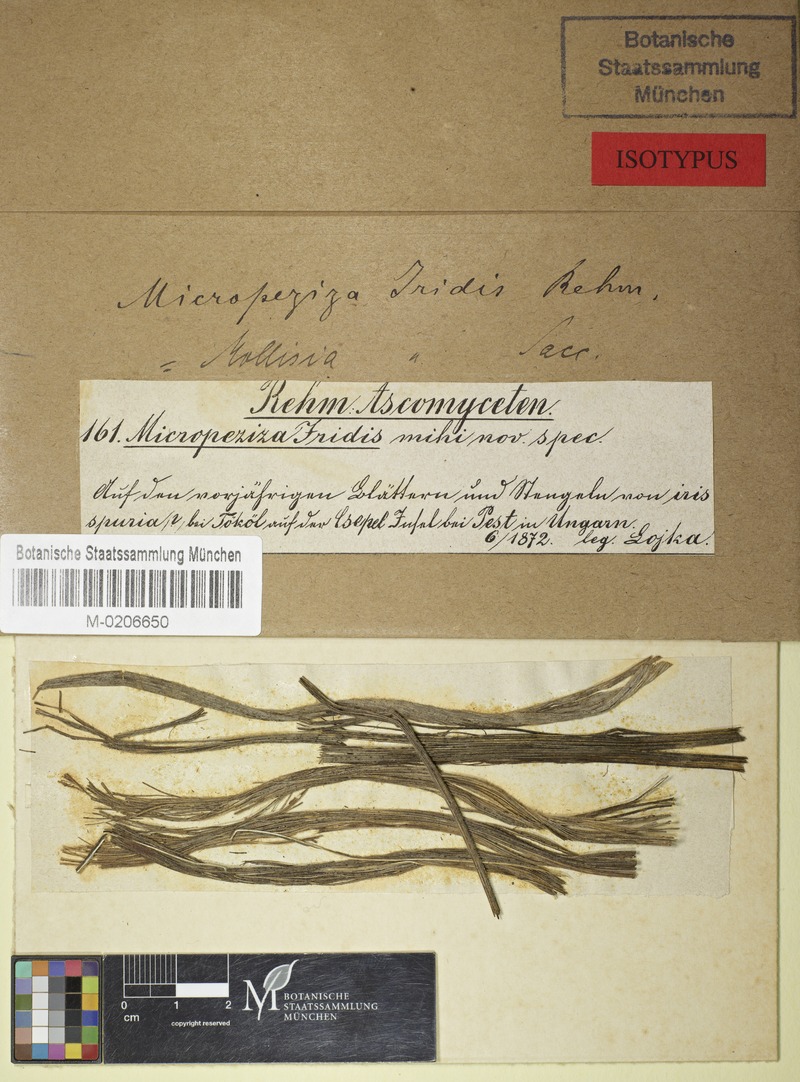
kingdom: Fungi
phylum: Ascomycota
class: Leotiomycetes
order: Helotiales
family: Ploettnerulaceae
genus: Pyrenopeziza
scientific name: Pyrenopeziza iridis
